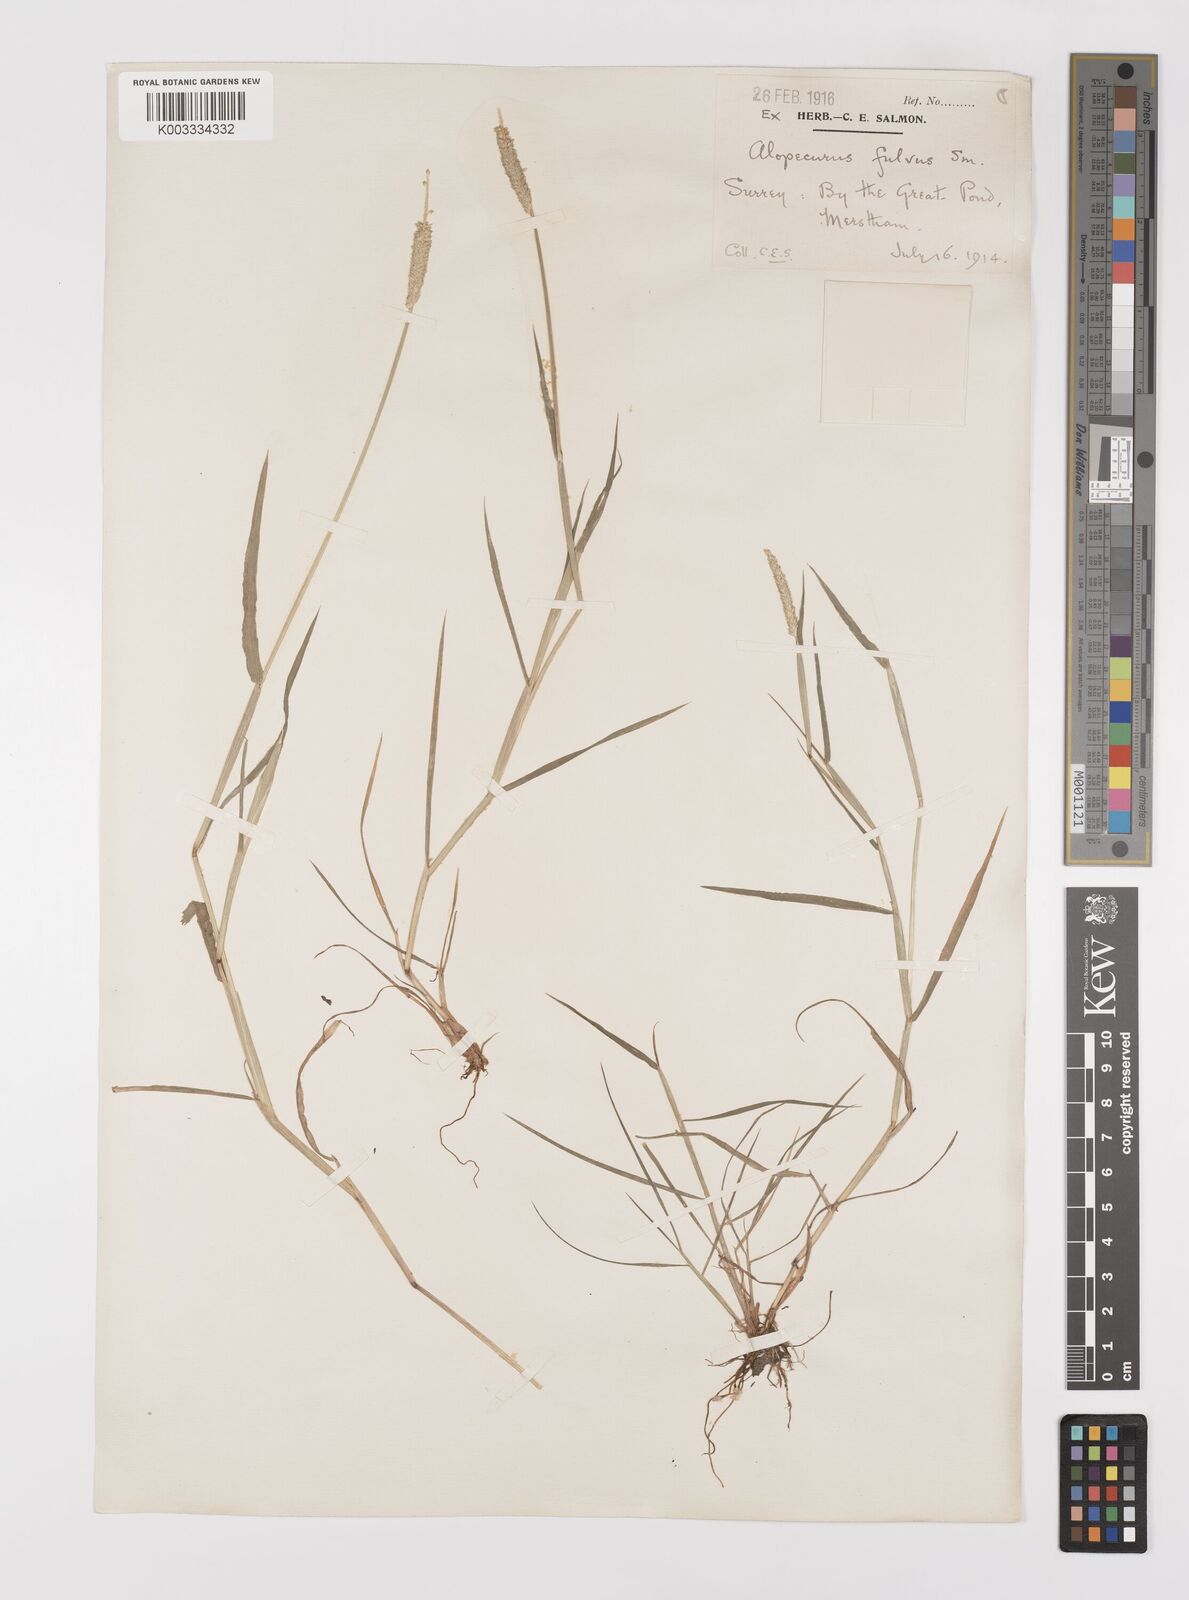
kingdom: Plantae
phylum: Tracheophyta
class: Liliopsida
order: Poales
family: Poaceae
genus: Alopecurus
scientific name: Alopecurus aequalis
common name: Orange foxtail
